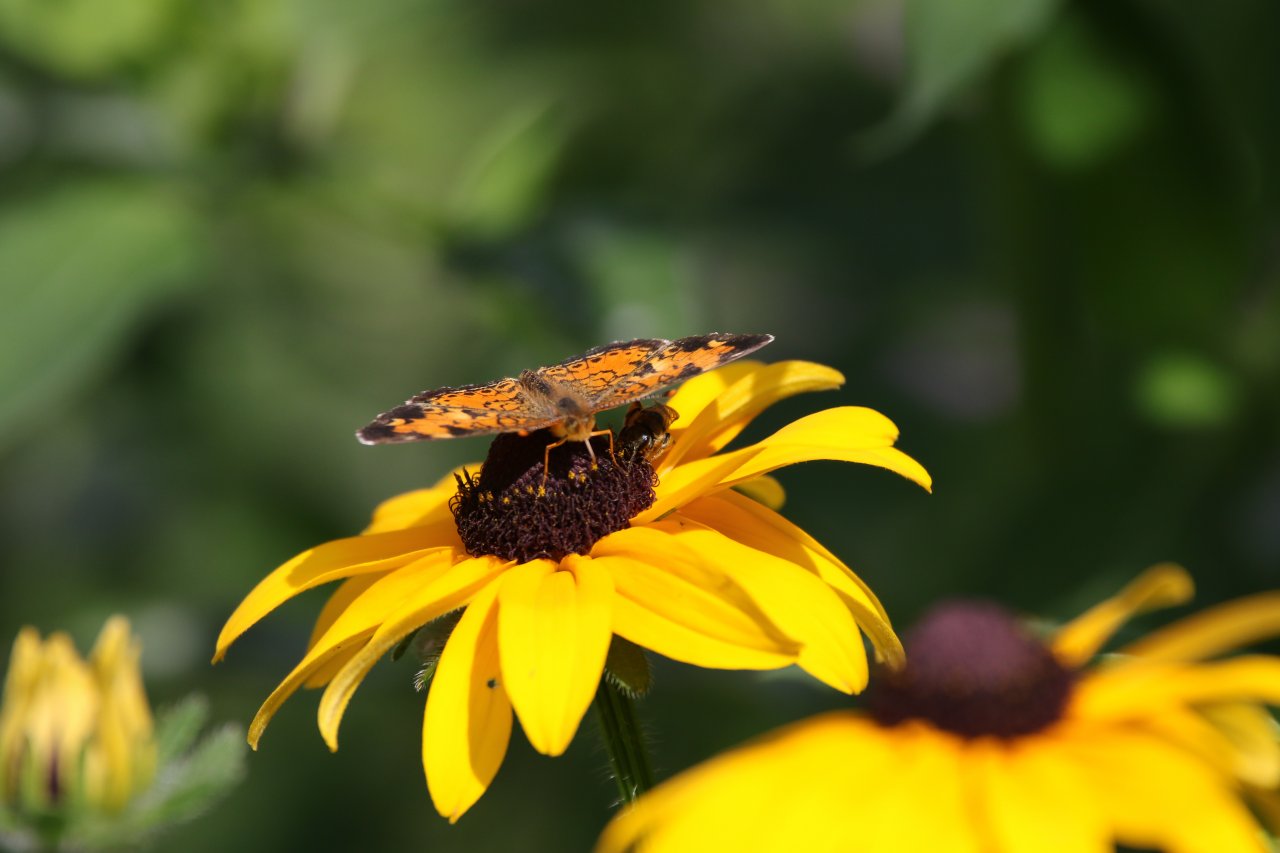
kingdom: Animalia
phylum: Arthropoda
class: Insecta
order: Lepidoptera
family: Nymphalidae
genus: Phyciodes
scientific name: Phyciodes tharos
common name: Northern Crescent
